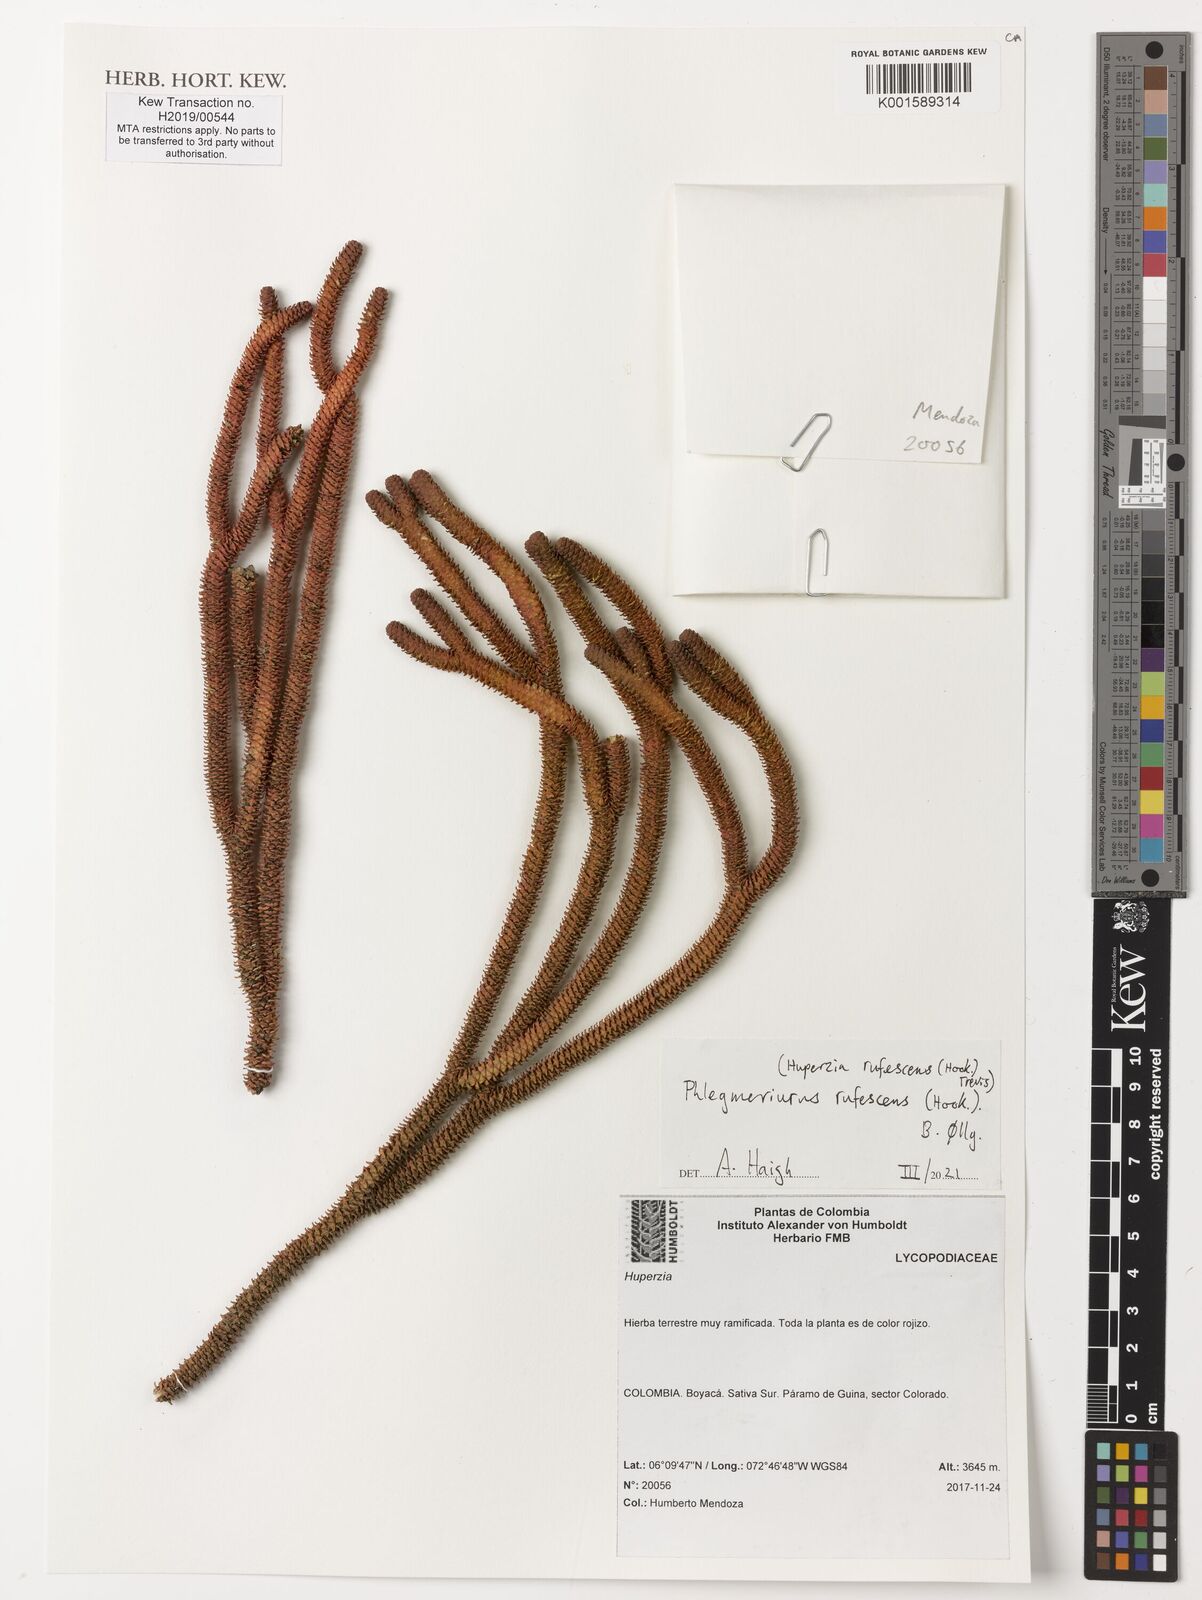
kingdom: Plantae
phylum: Tracheophyta
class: Lycopodiopsida
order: Lycopodiales
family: Lycopodiaceae
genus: Phlegmariurus
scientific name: Phlegmariurus rufescens
